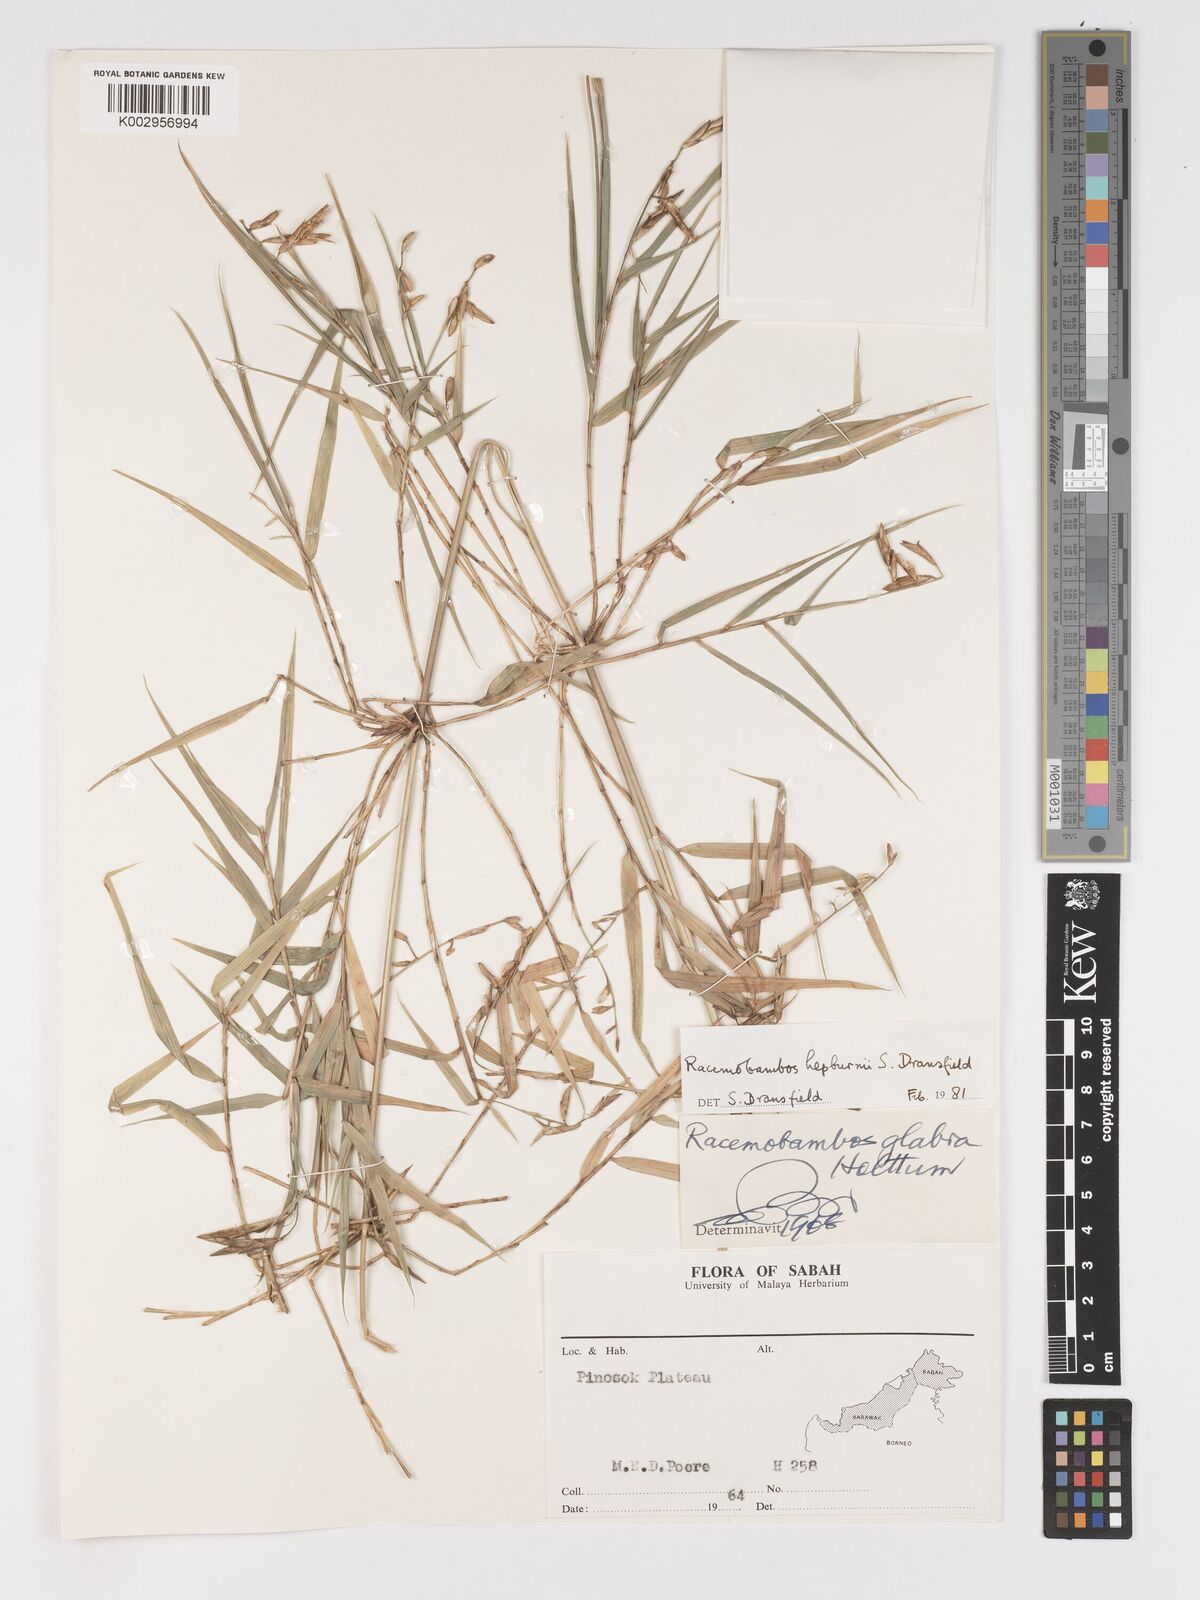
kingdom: Plantae
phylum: Tracheophyta
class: Liliopsida
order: Poales
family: Poaceae
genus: Racemobambos
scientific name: Racemobambos
